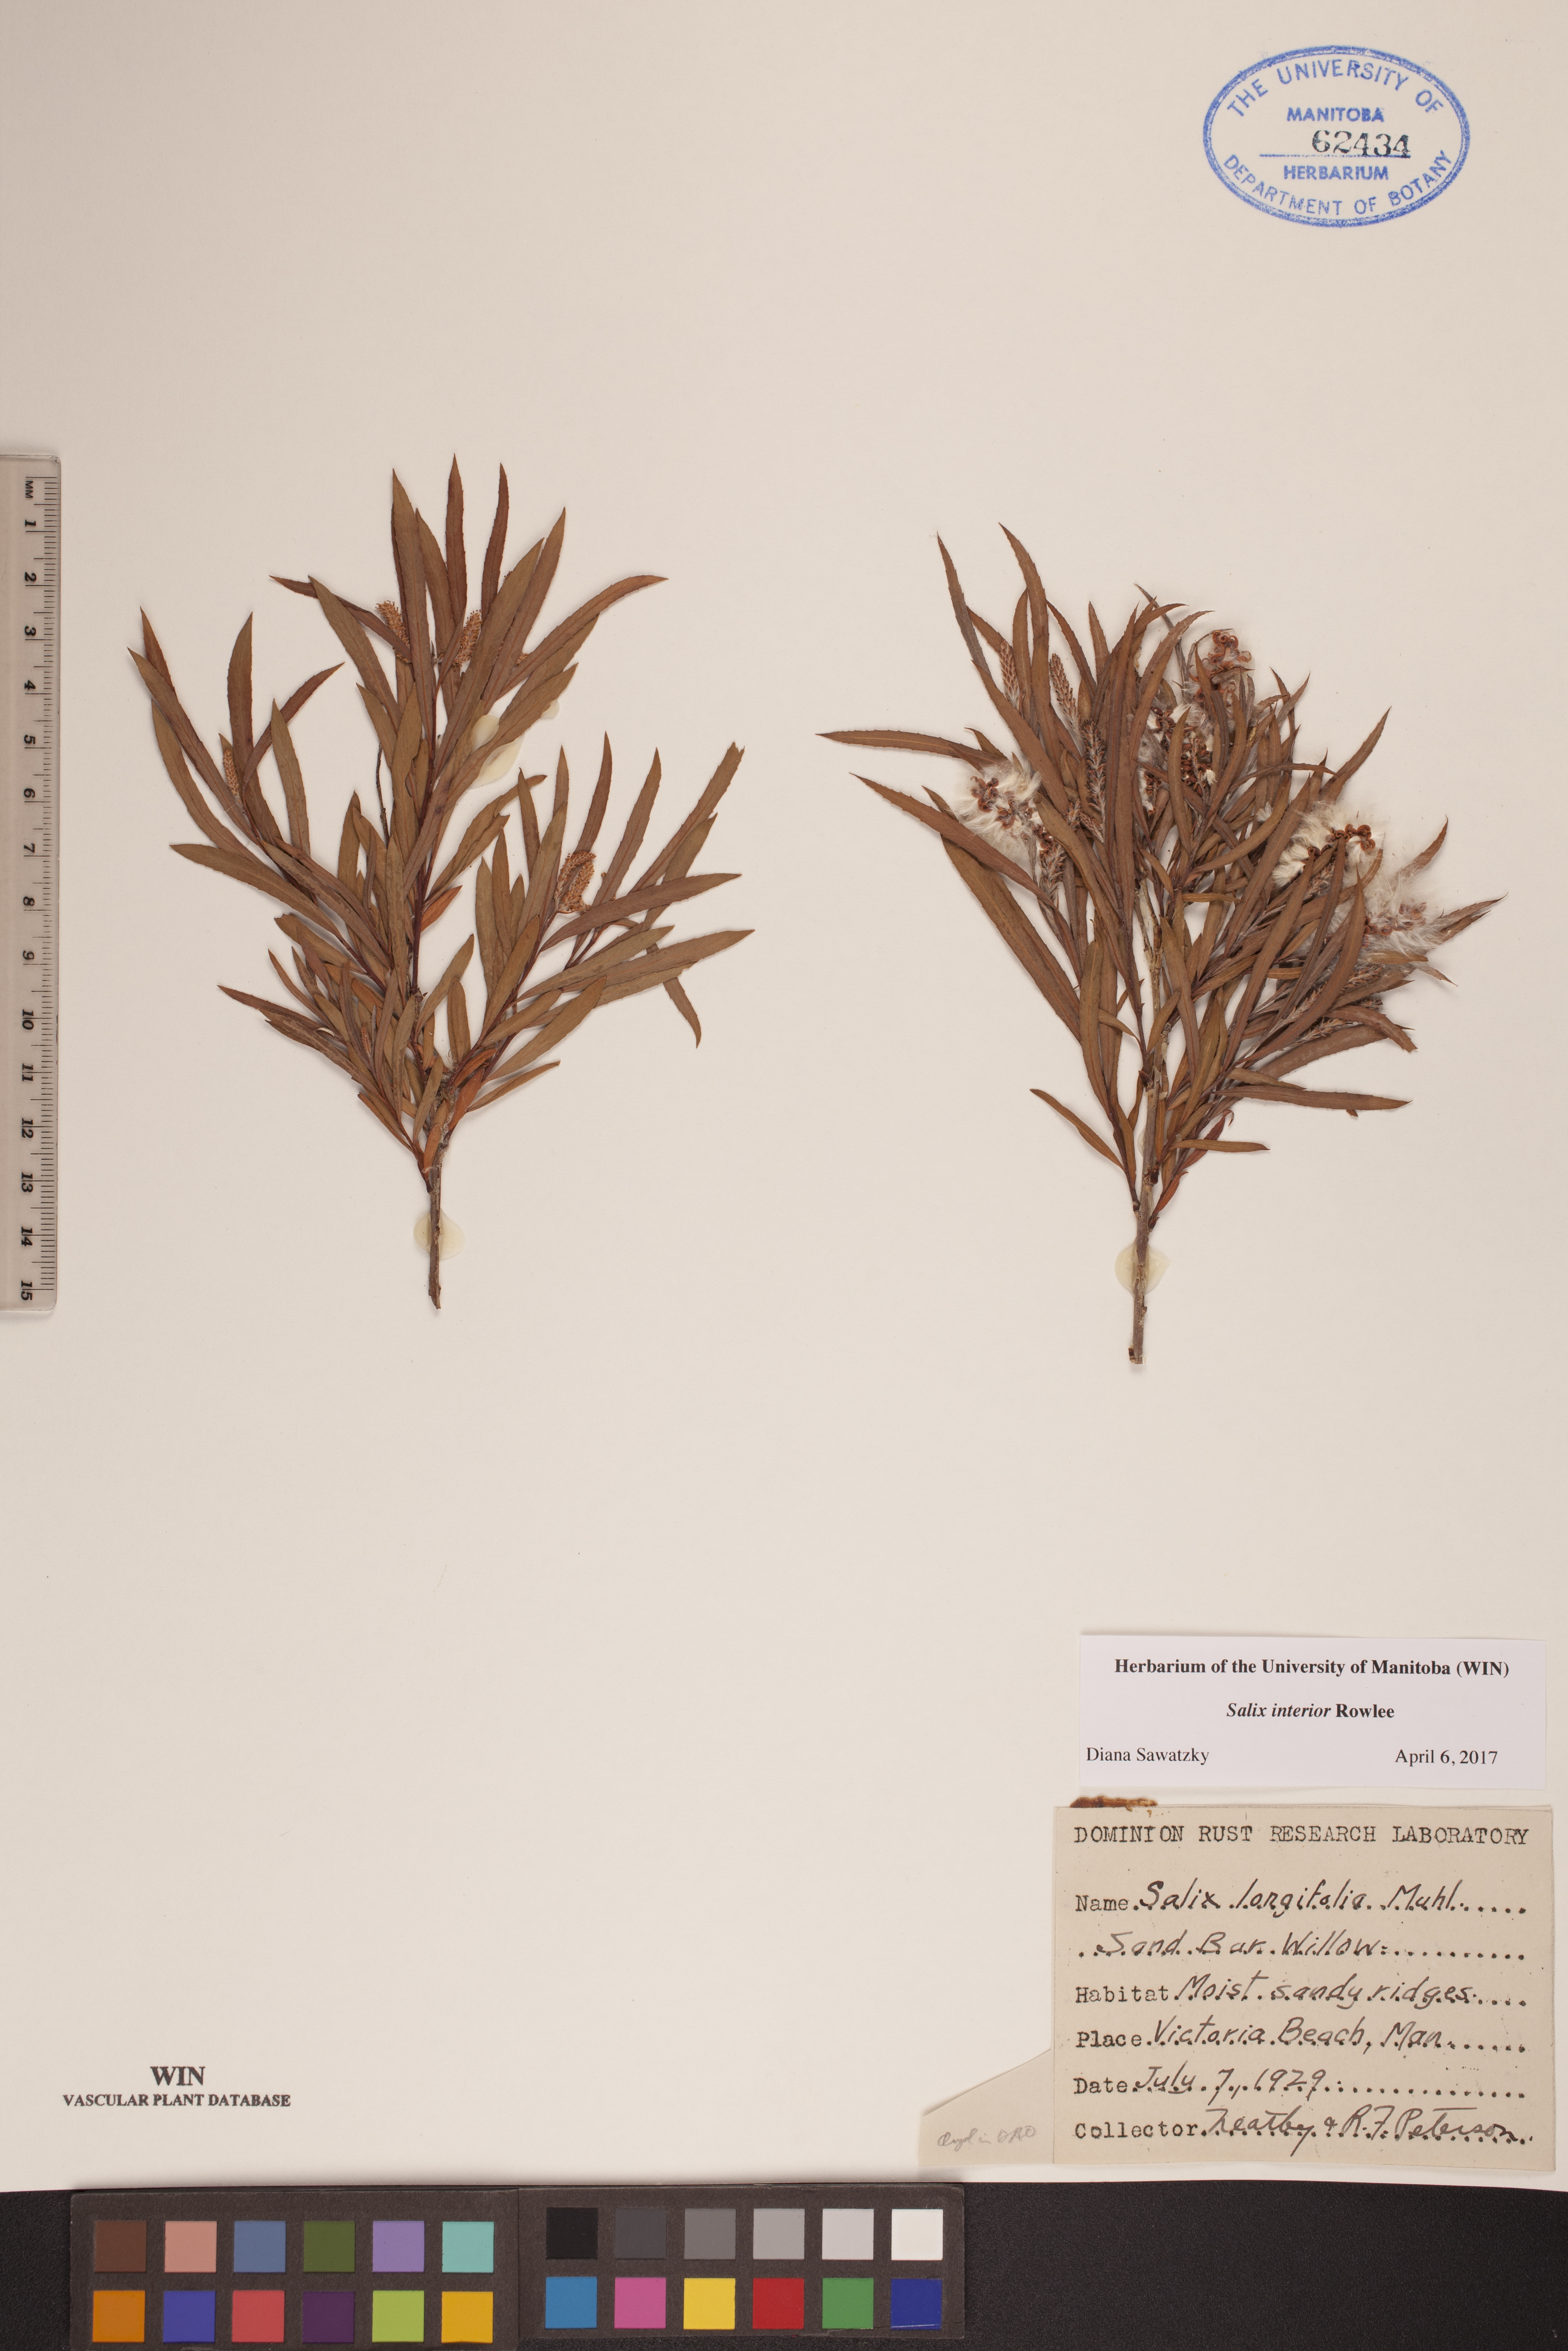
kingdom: Plantae
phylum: Tracheophyta
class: Magnoliopsida
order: Malpighiales
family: Salicaceae
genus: Salix
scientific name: Salix interior
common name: Sandbar willow
